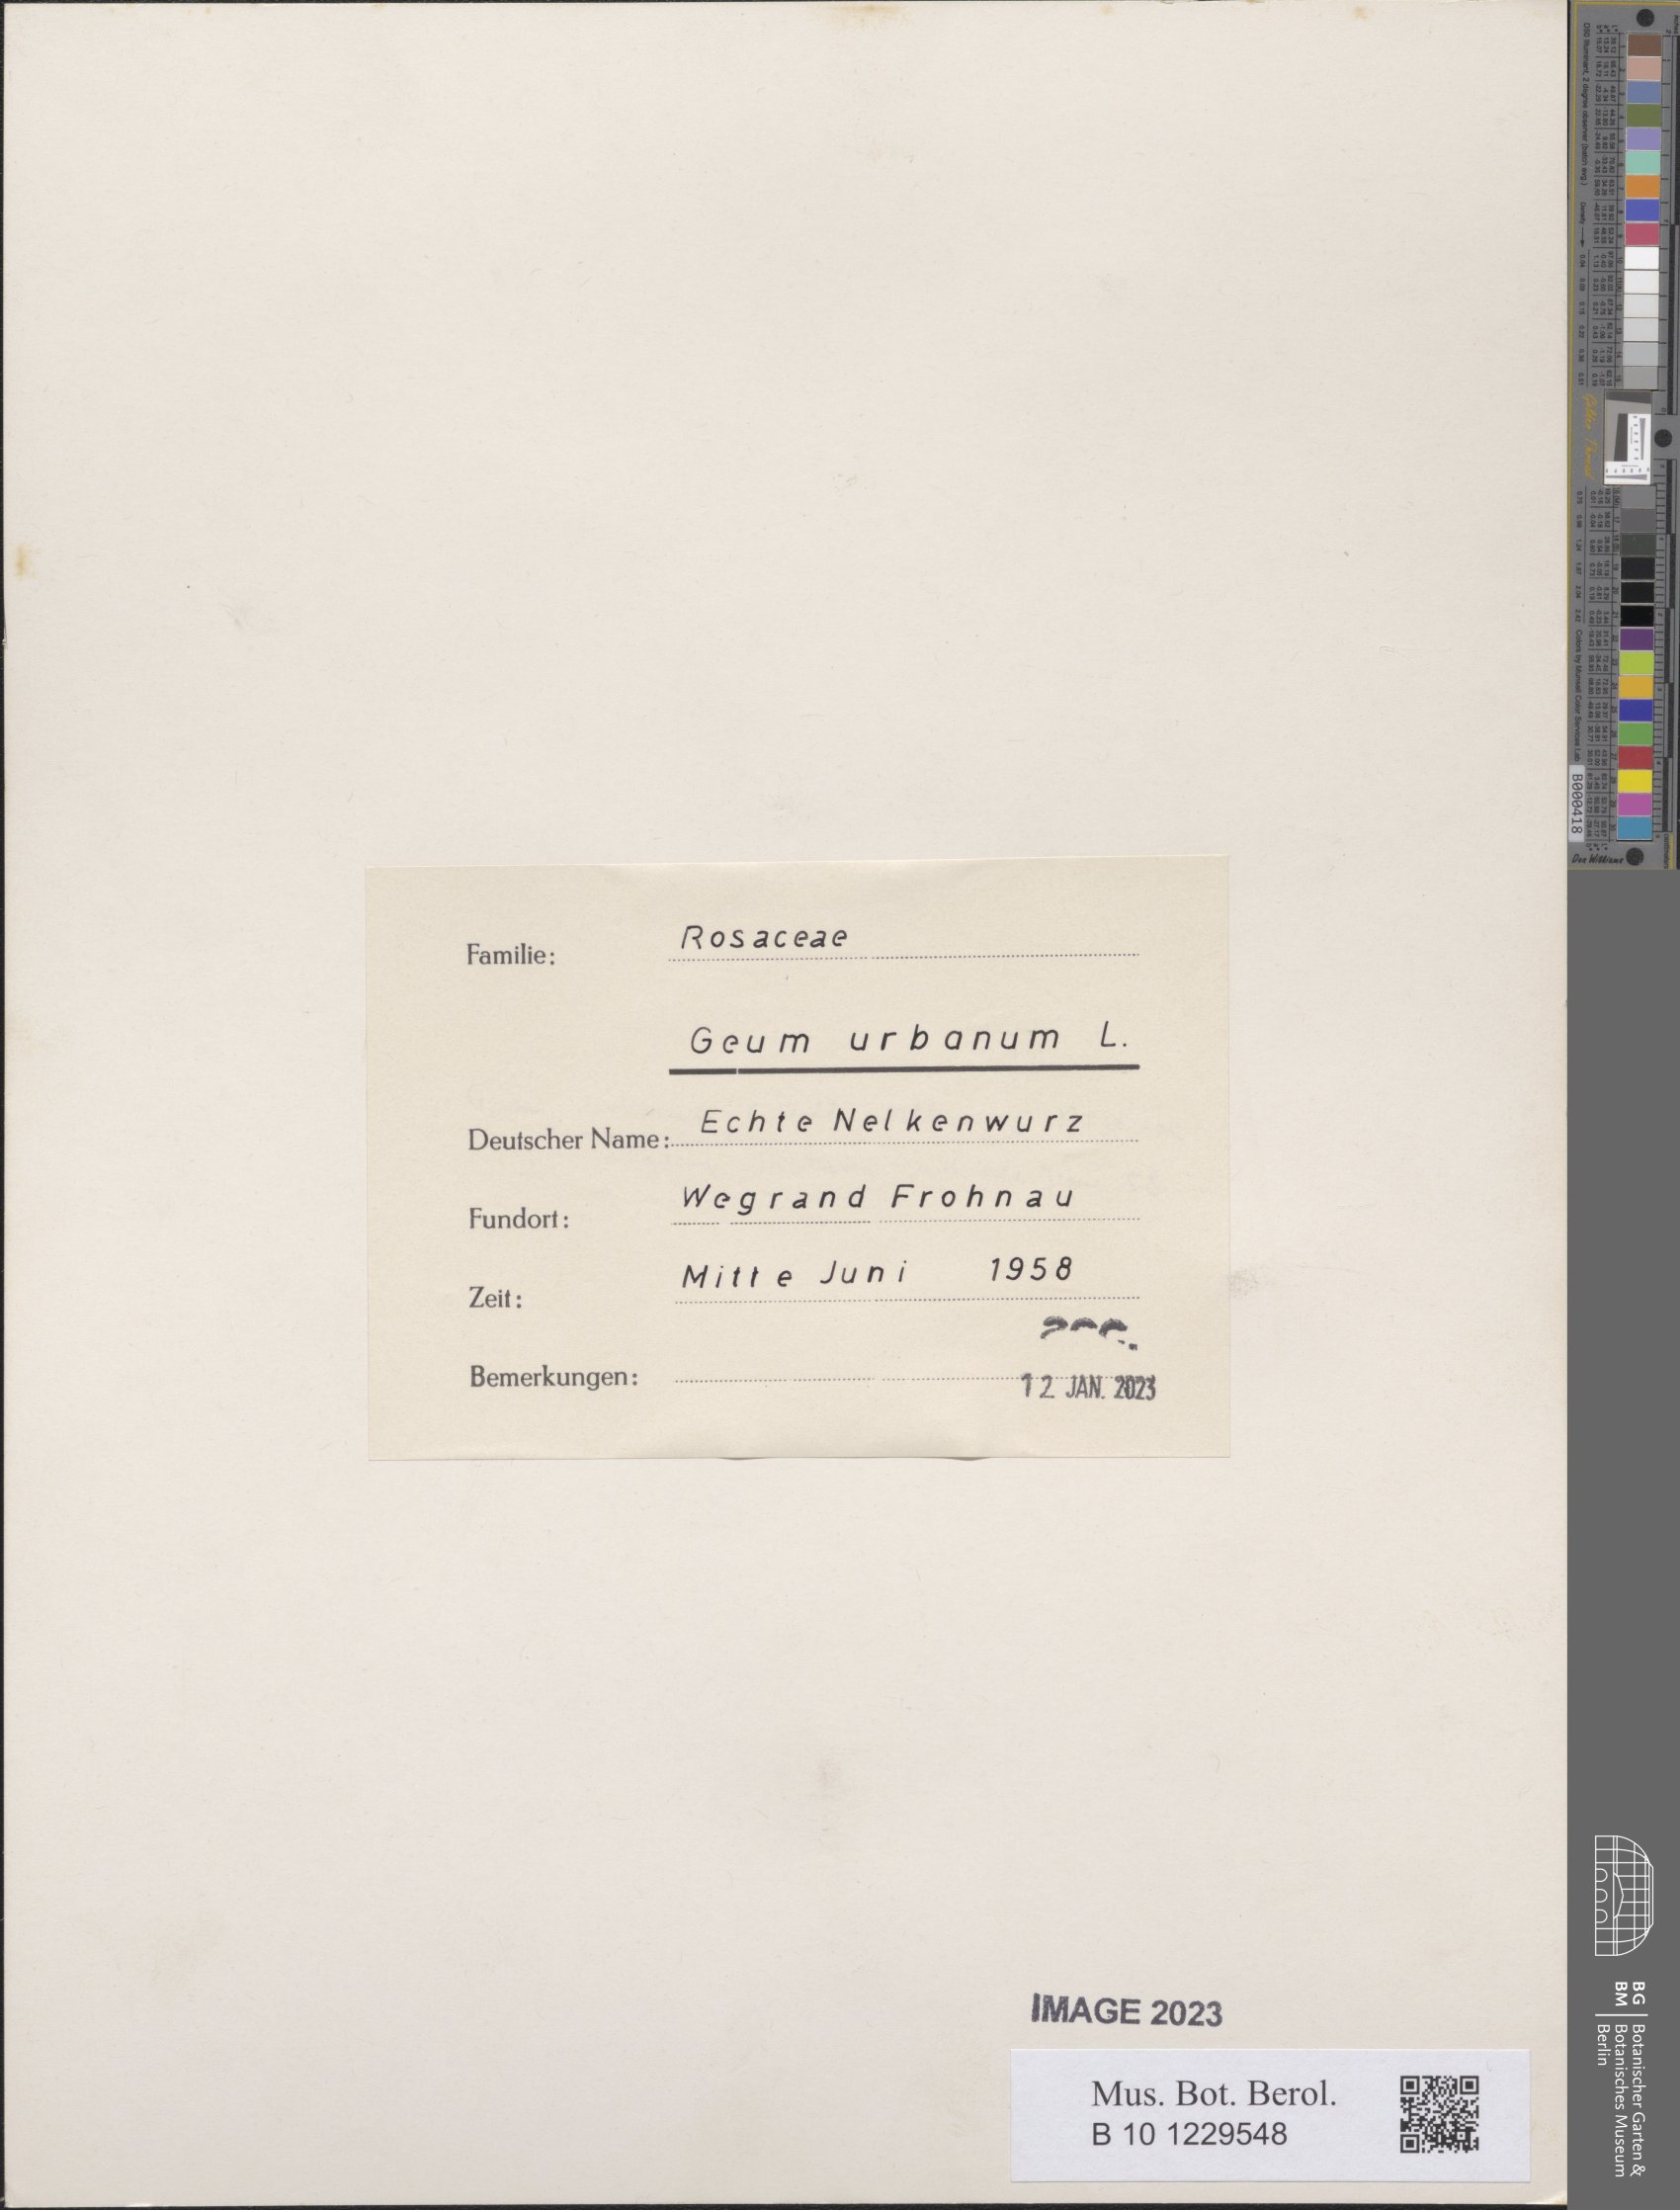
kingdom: Plantae
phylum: Tracheophyta
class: Magnoliopsida
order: Rosales
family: Rosaceae
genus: Geum
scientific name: Geum urbanum
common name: Wood avens
